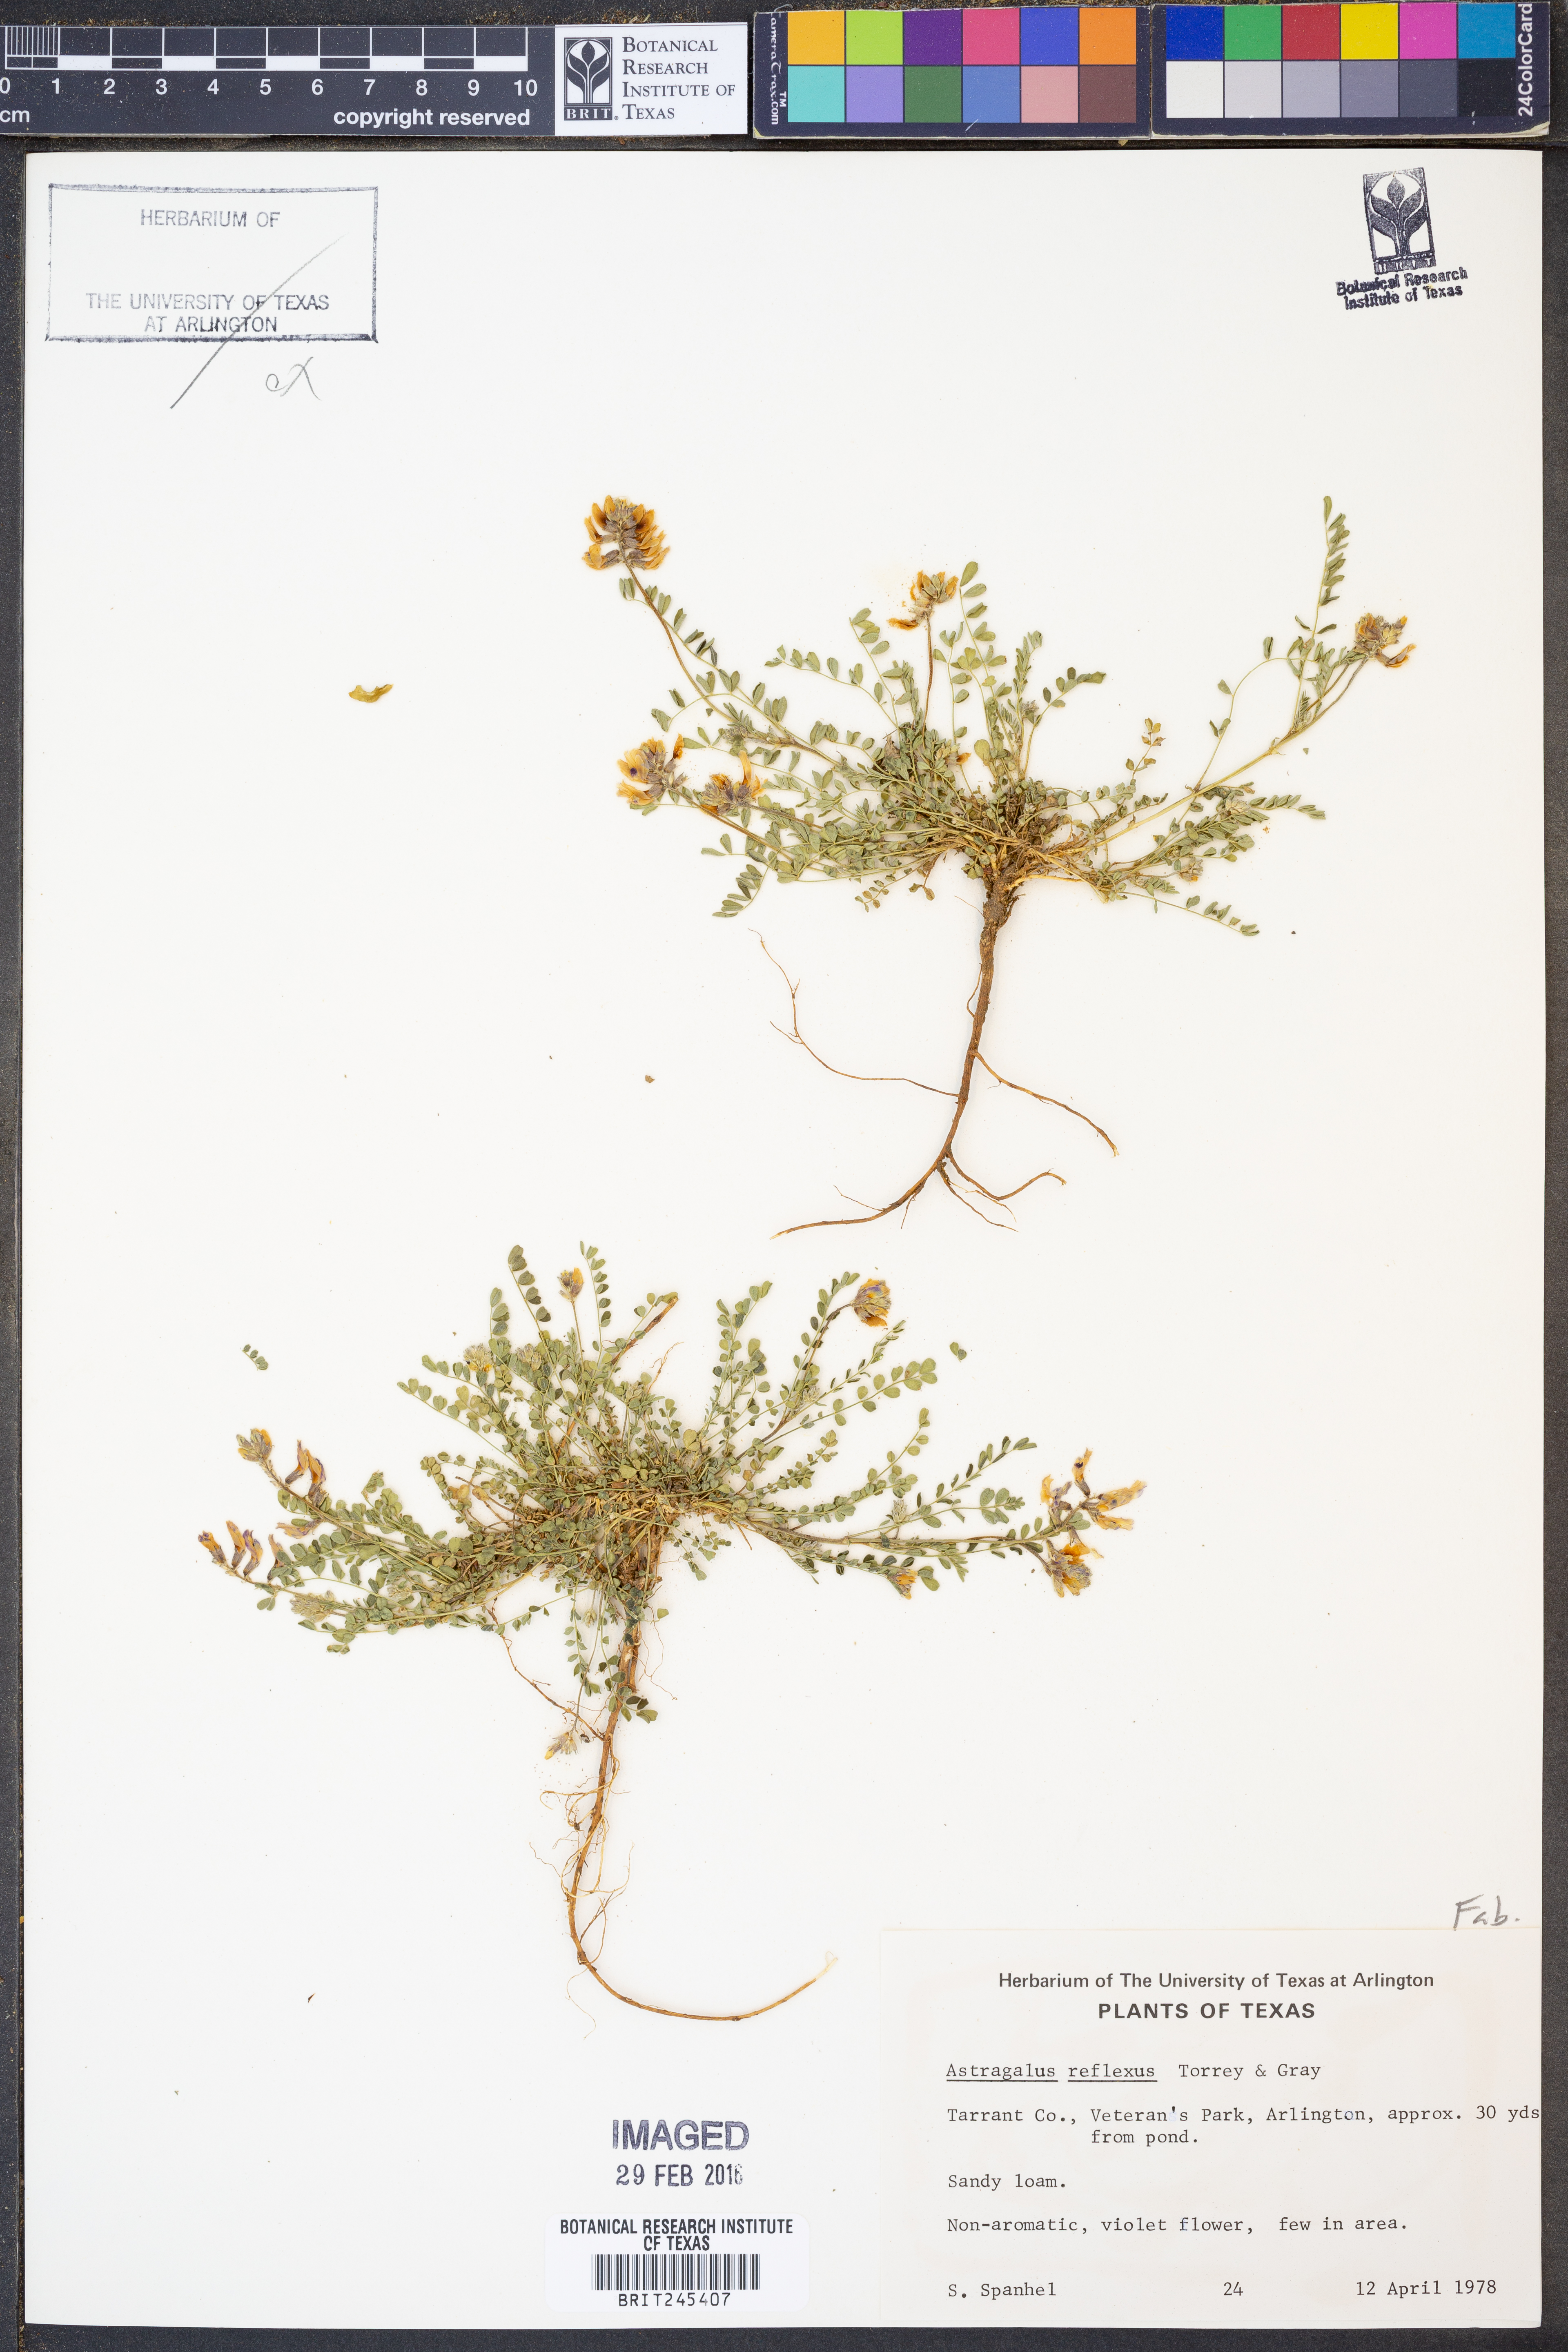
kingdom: Plantae
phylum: Tracheophyta
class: Magnoliopsida
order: Fabales
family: Fabaceae
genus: Astragalus
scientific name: Astragalus reflexus
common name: Texas milk-vetch
